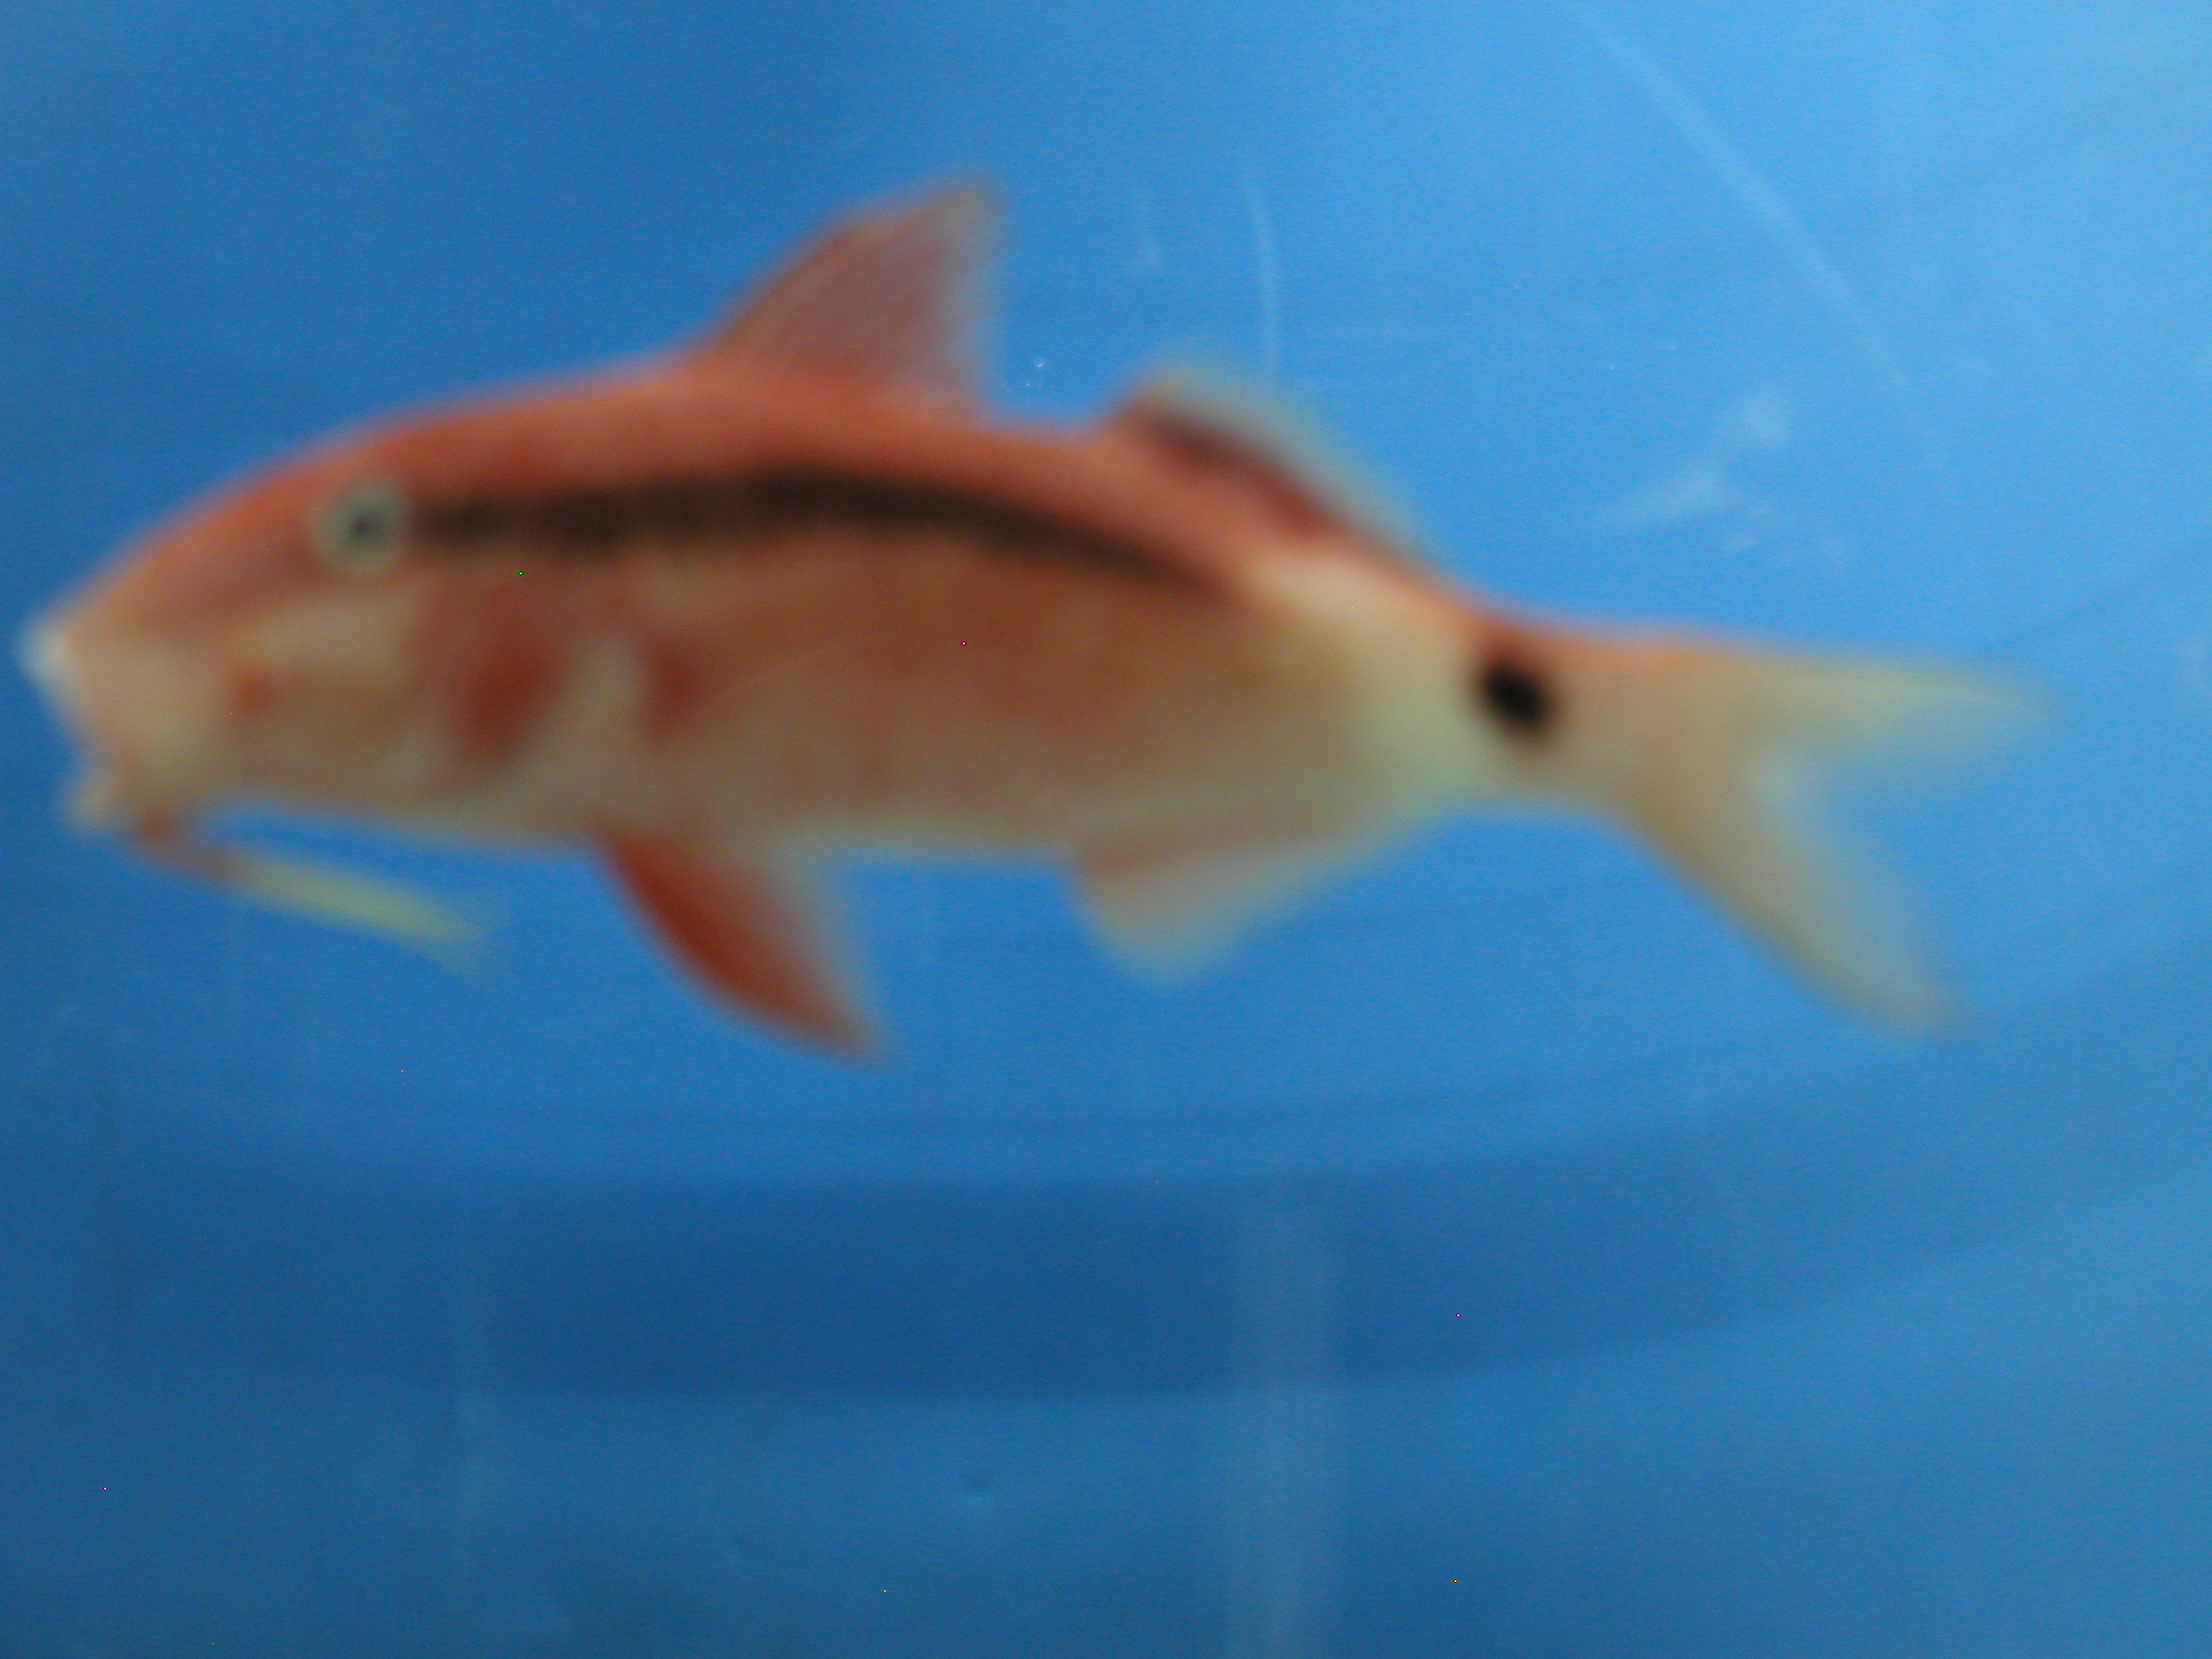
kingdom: Animalia
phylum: Chordata
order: Perciformes
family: Mullidae
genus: Parupeneus
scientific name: Parupeneus macronemus
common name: Long-barbel goatfish
